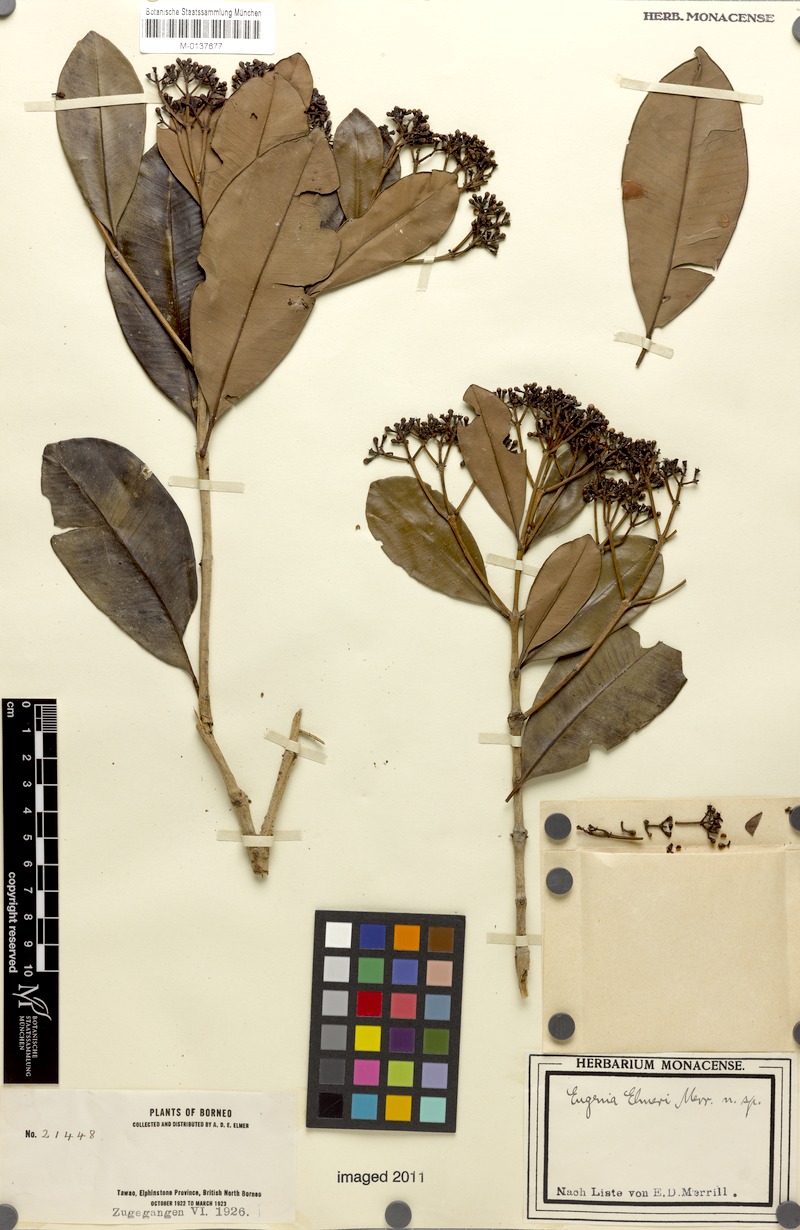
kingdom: Plantae
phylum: Tracheophyta
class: Magnoliopsida
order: Myrtales
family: Myrtaceae
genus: Syzygium
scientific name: Syzygium fastigiatum
